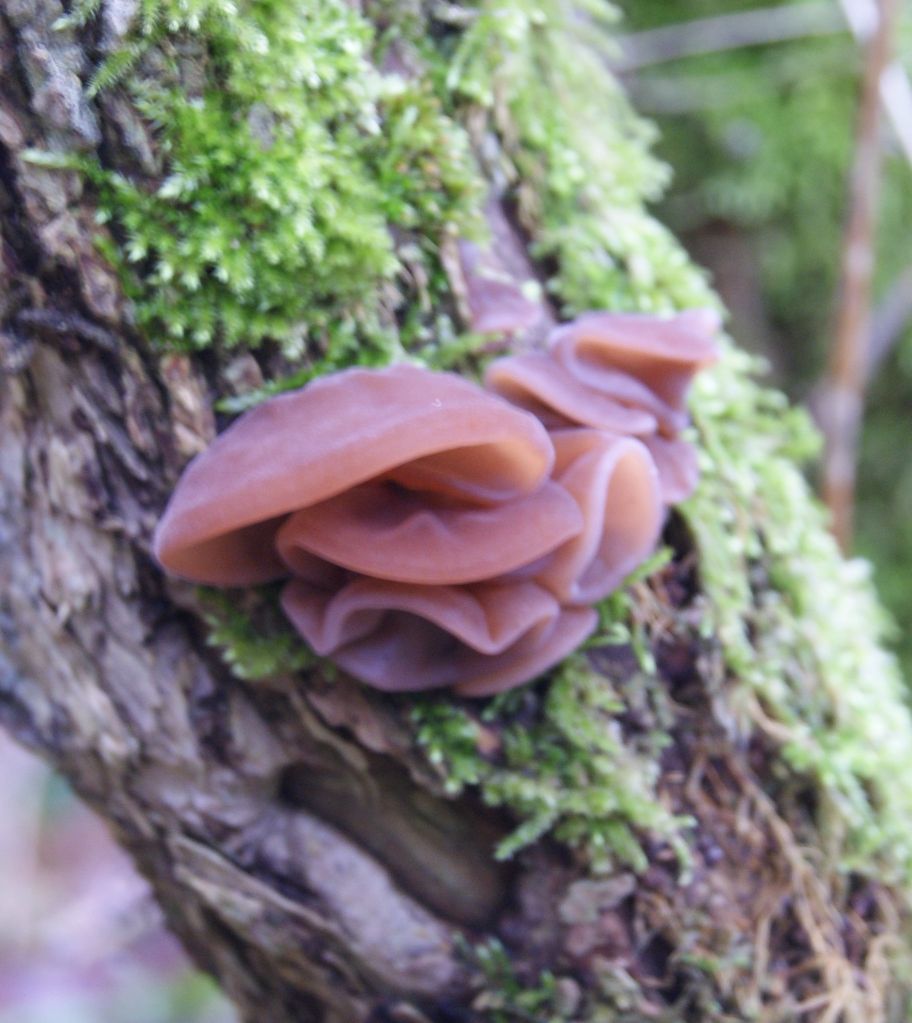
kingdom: Fungi
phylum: Basidiomycota
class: Agaricomycetes
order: Auriculariales
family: Auriculariaceae
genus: Auricularia
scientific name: Auricularia auricula-judae
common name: almindelig judasøre
